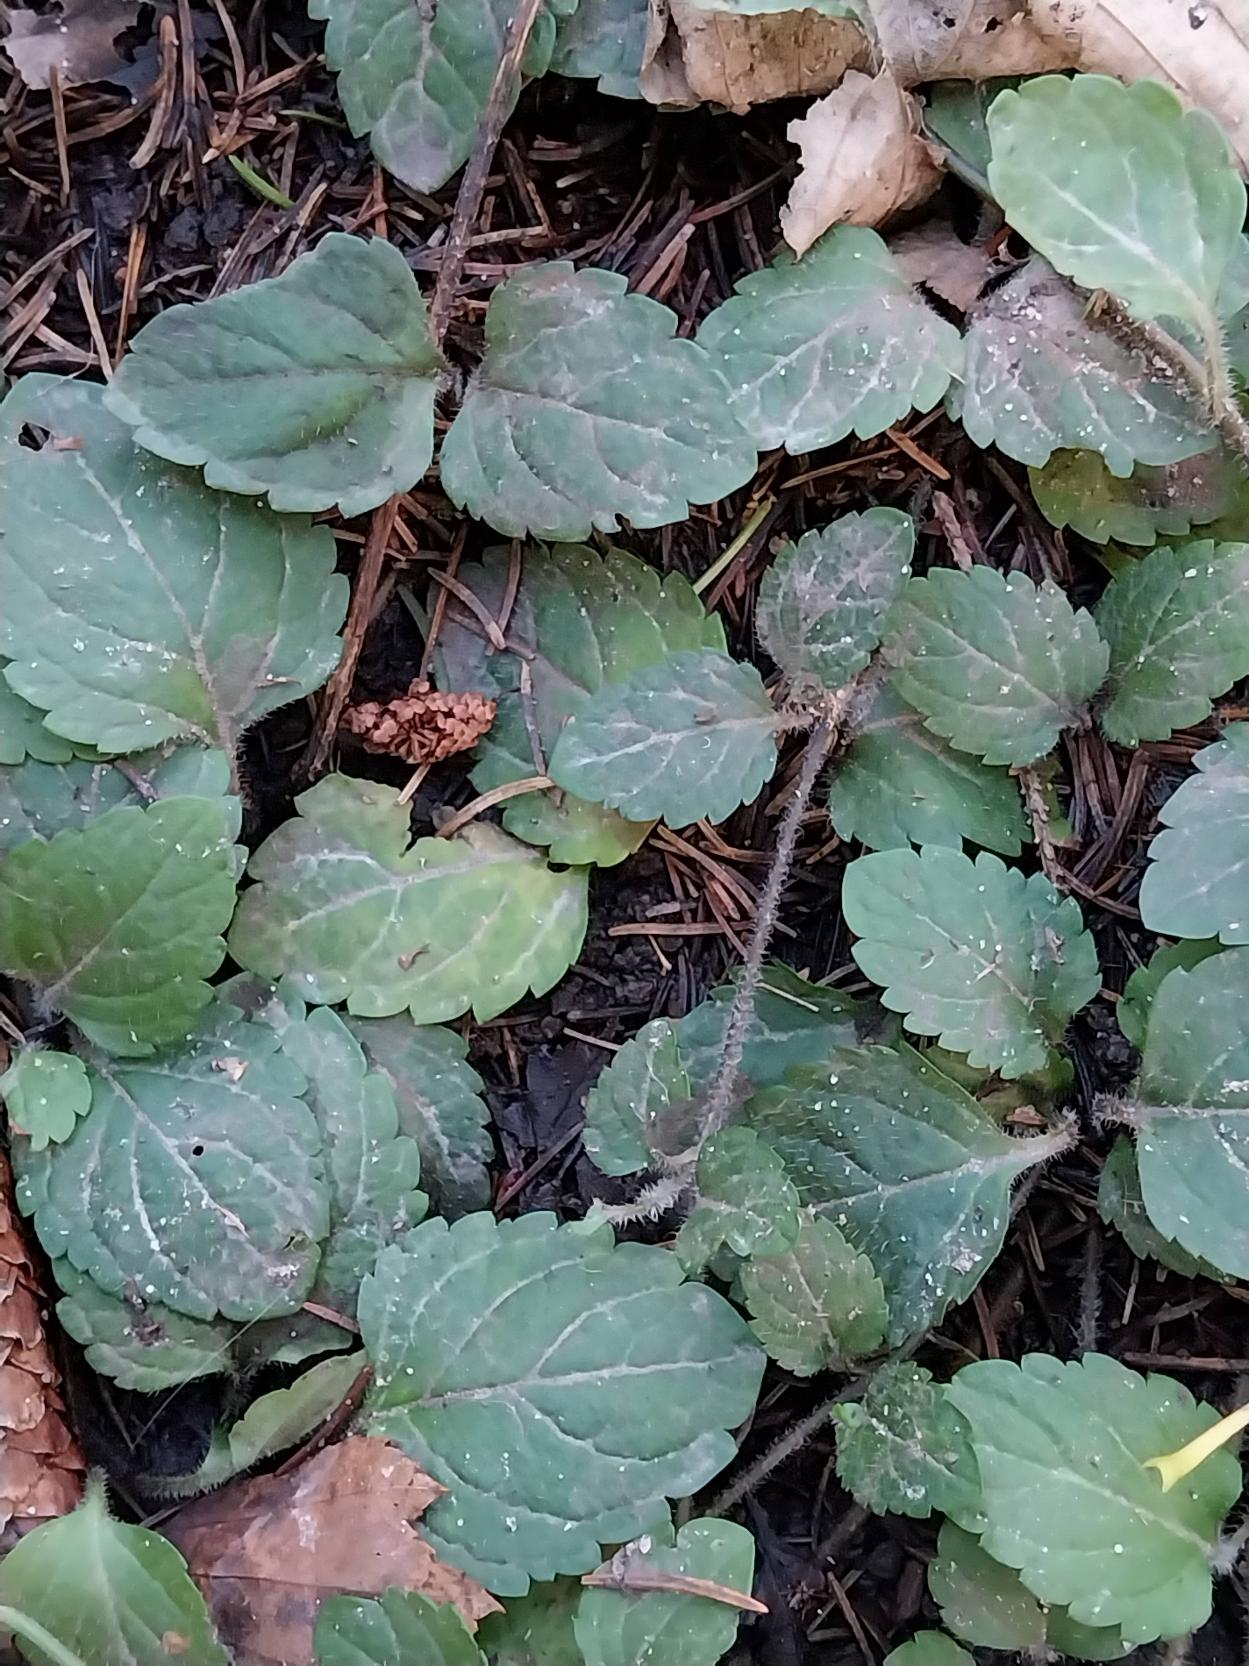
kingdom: Plantae
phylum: Tracheophyta
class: Magnoliopsida
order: Lamiales
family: Plantaginaceae
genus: Veronica
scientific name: Veronica montana
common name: Bjerg-ærenpris
